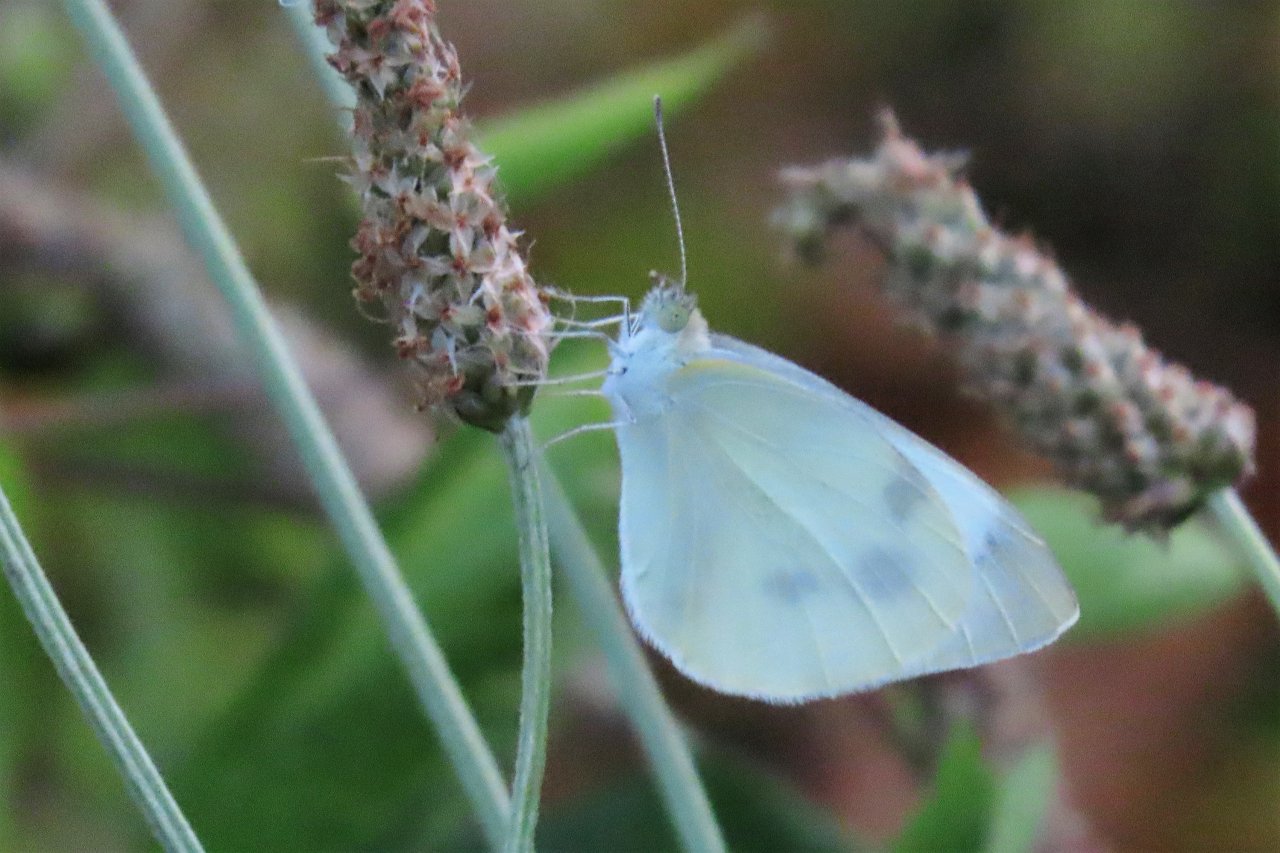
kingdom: Animalia
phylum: Arthropoda
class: Insecta
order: Lepidoptera
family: Pieridae
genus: Pieris
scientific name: Pieris rapae
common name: Cabbage White
